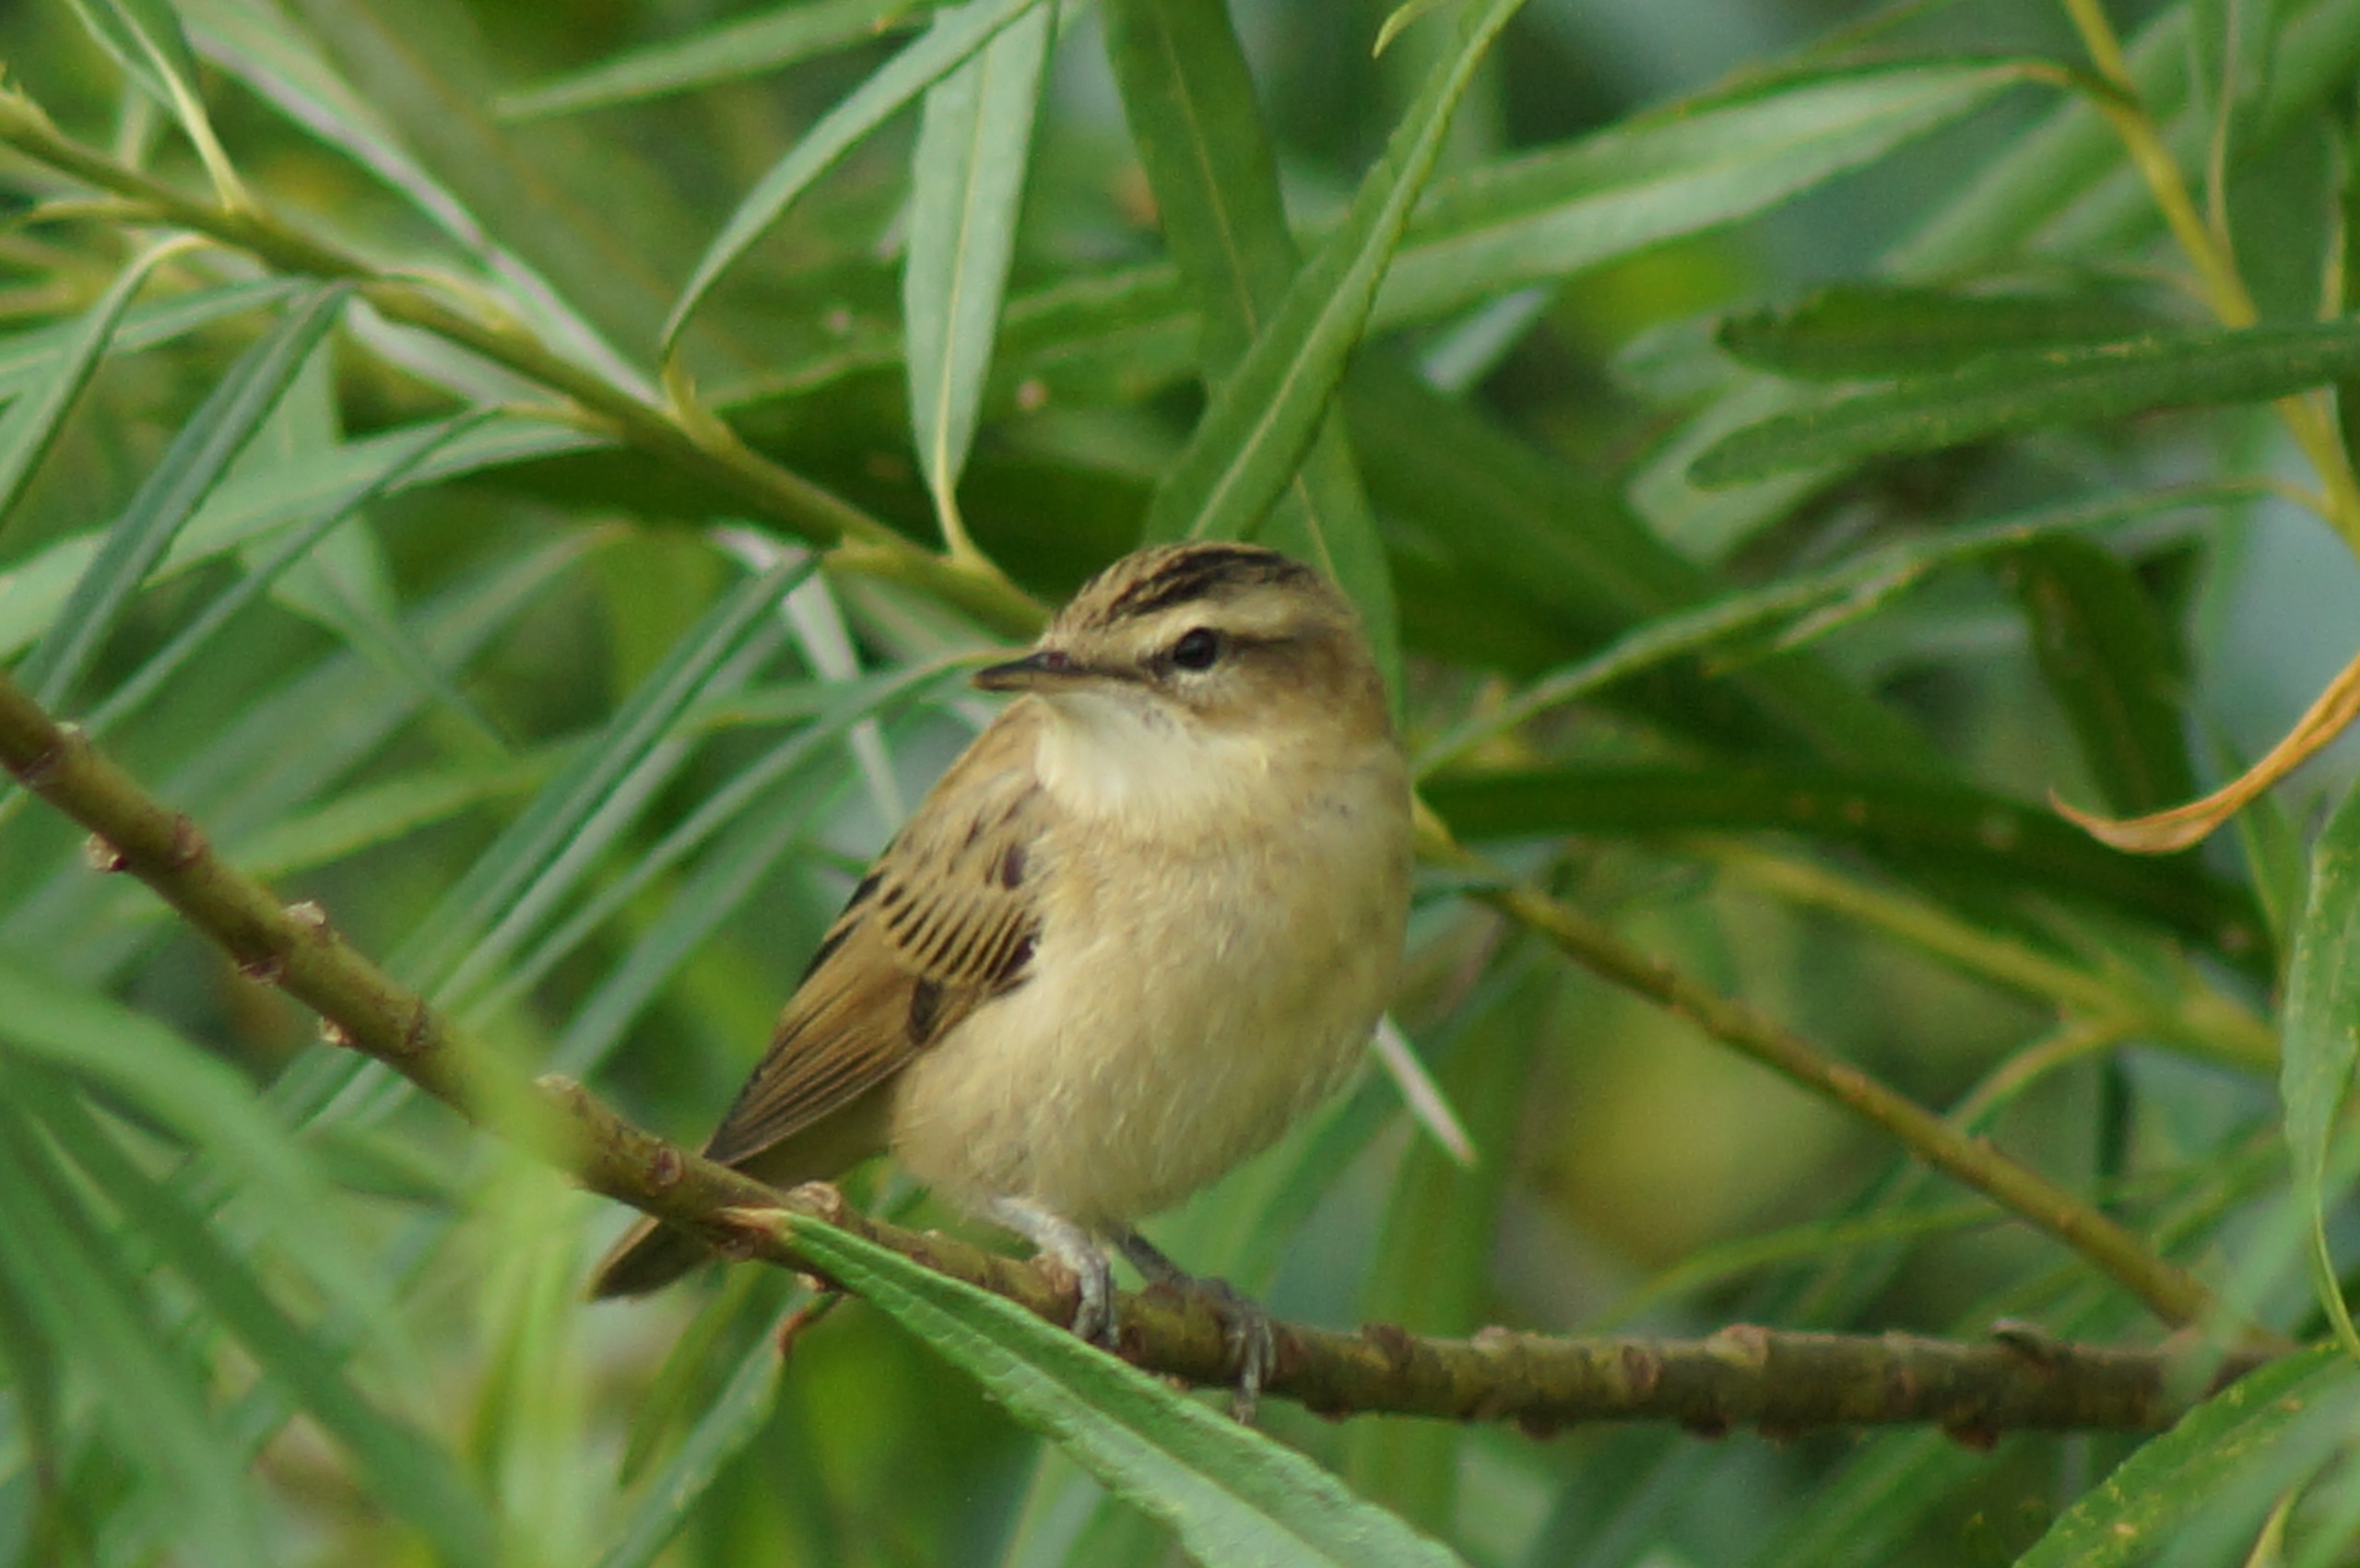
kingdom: Animalia
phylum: Chordata
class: Aves
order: Passeriformes
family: Acrocephalidae
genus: Acrocephalus
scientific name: Acrocephalus schoenobaenus
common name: Sivsanger
